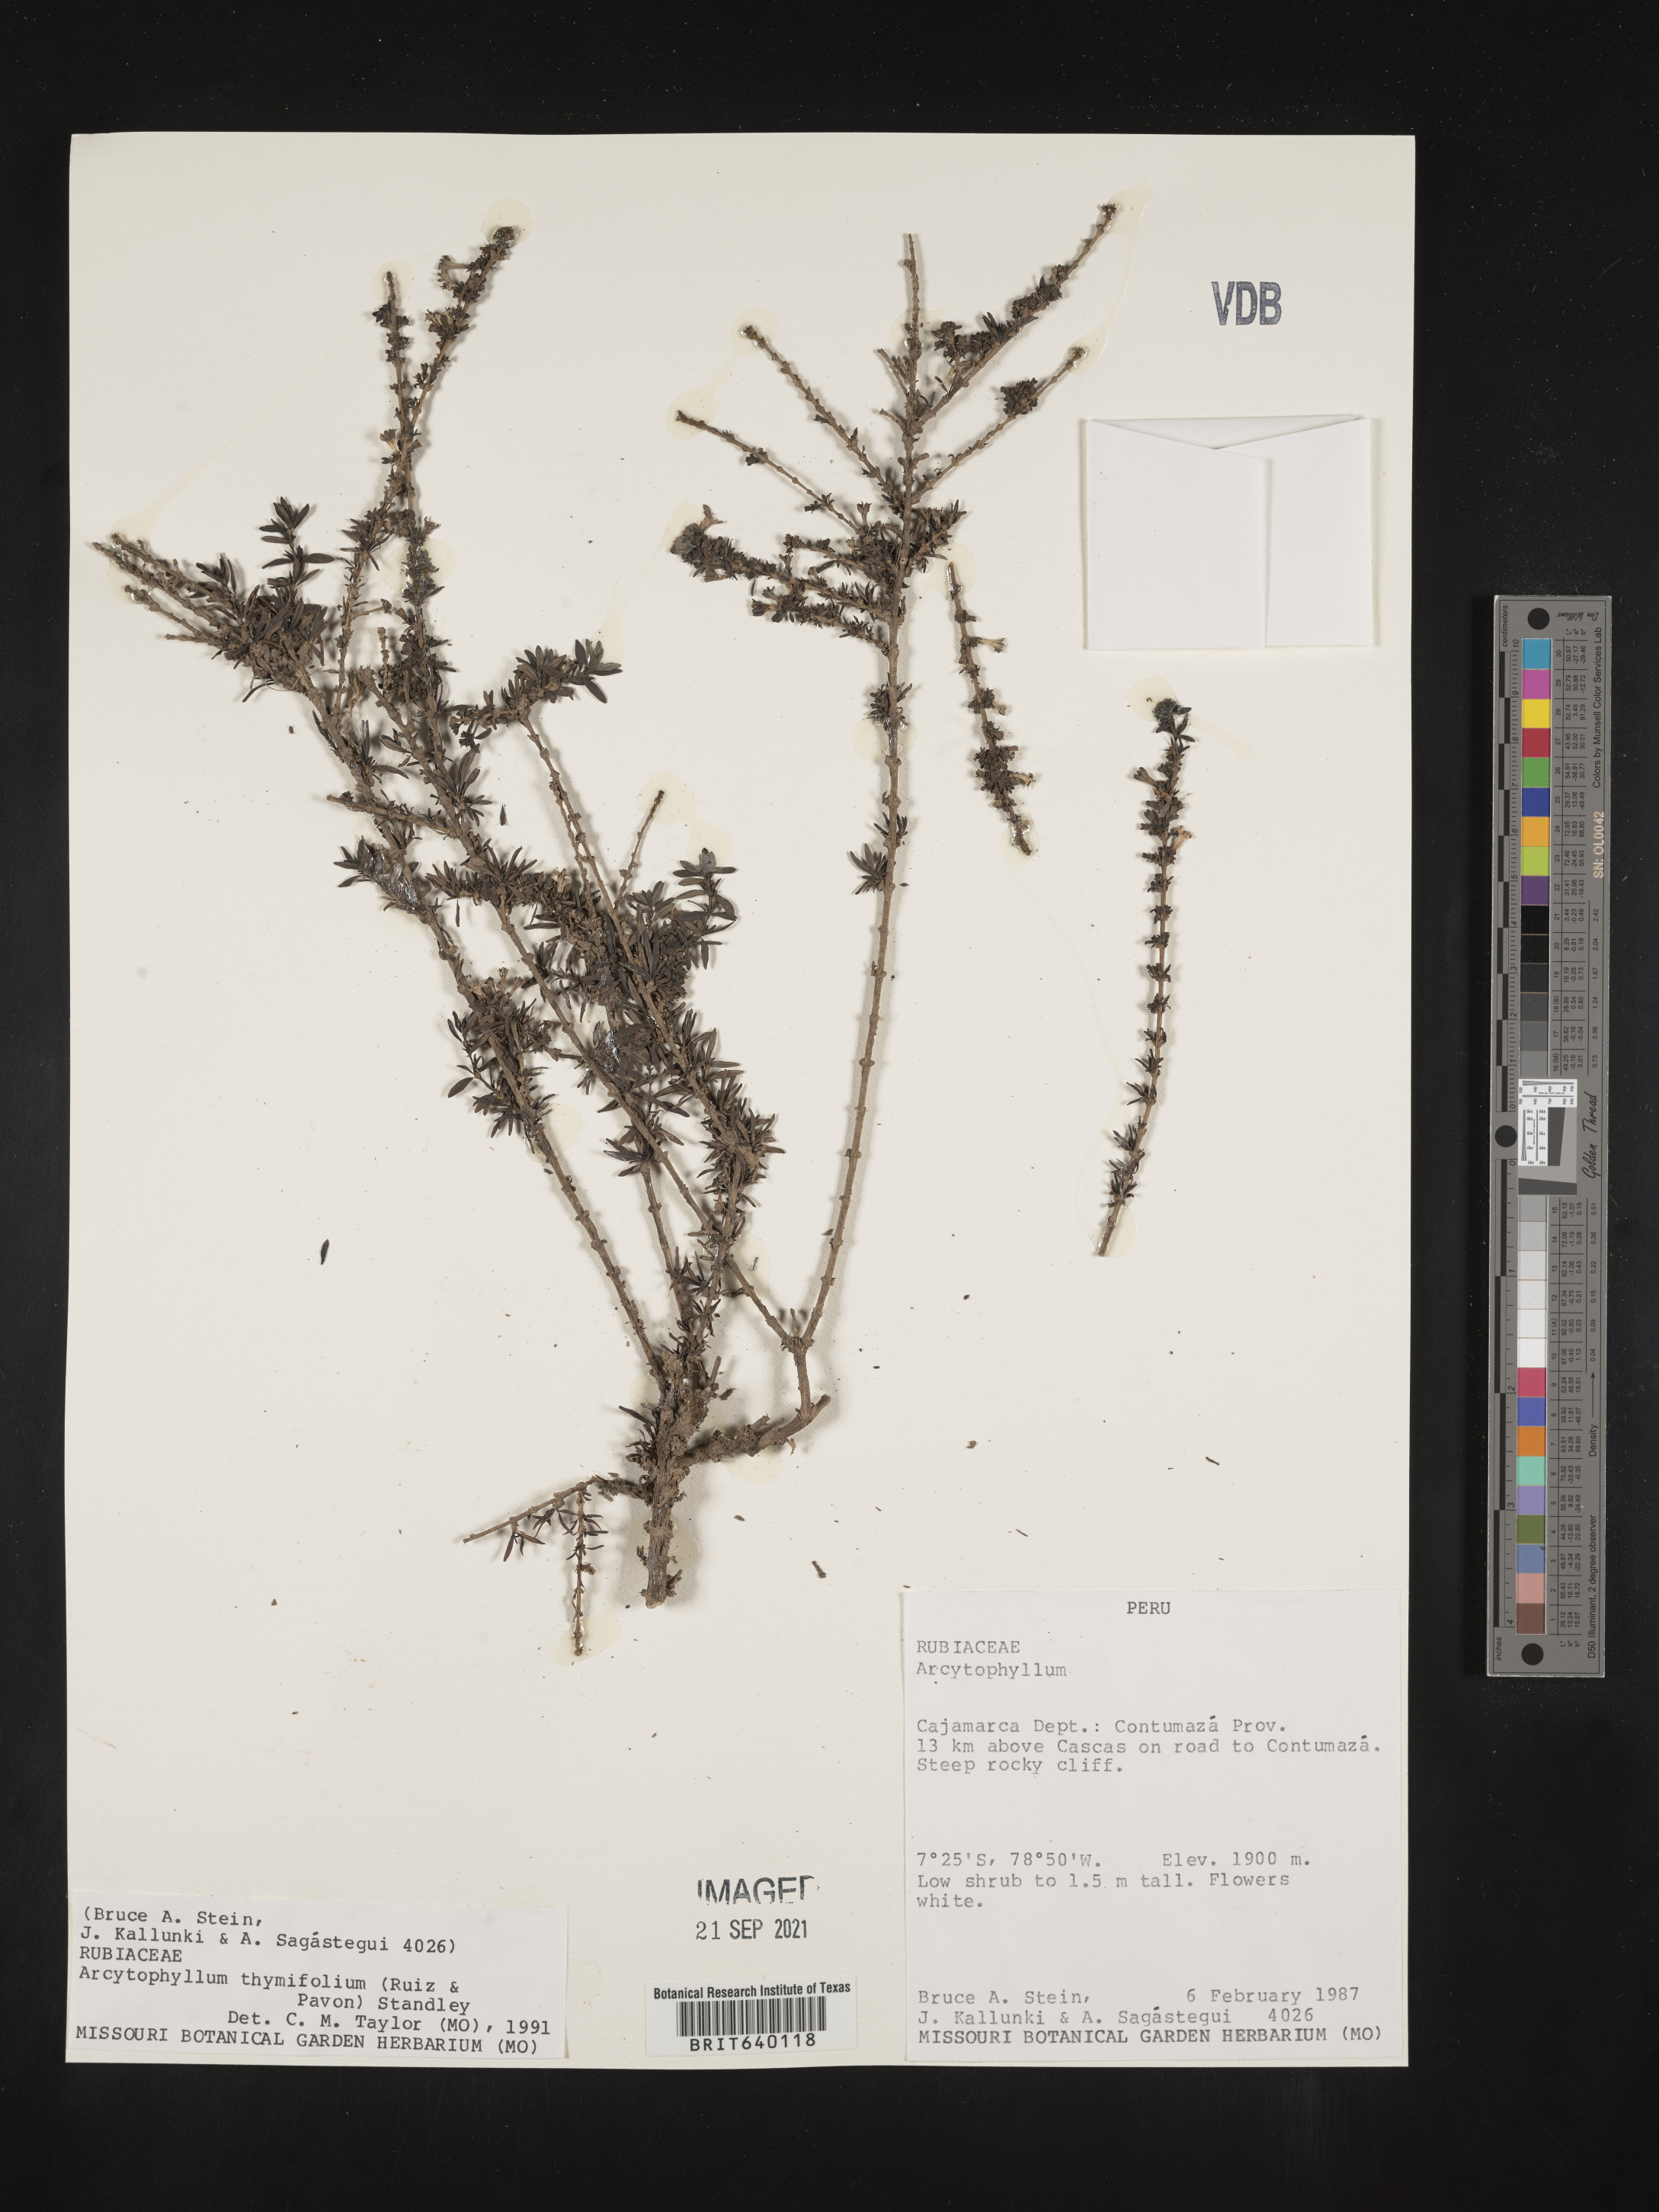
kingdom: Plantae
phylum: Tracheophyta
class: Magnoliopsida
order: Gentianales
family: Rubiaceae
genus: Arcytophyllum
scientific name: Arcytophyllum
